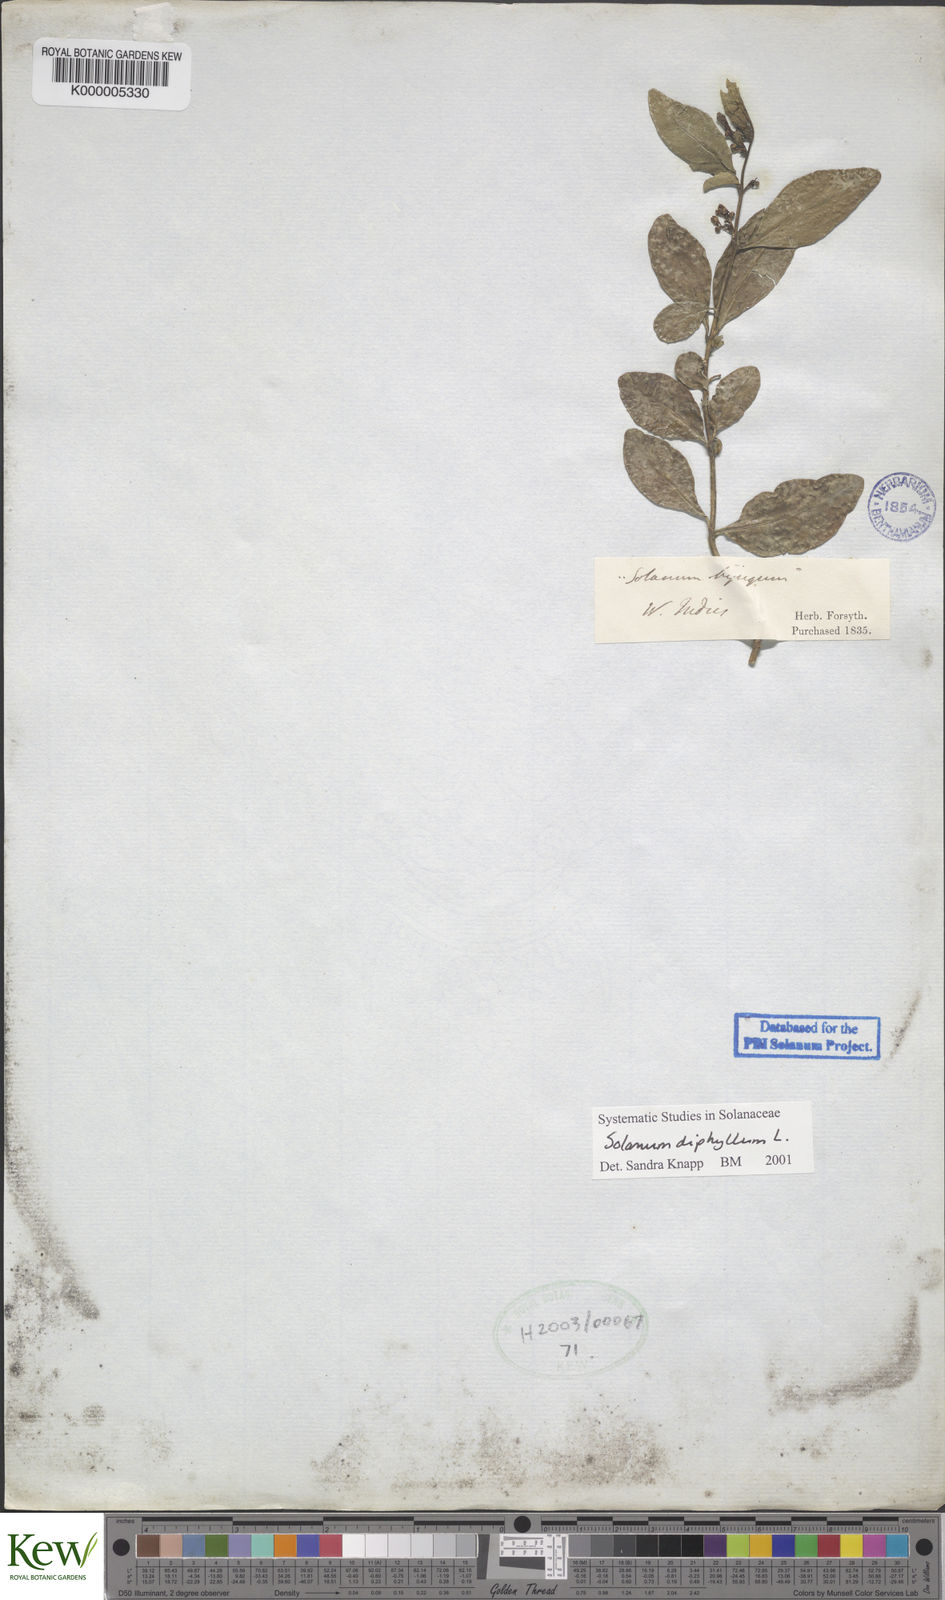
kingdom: Plantae
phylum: Tracheophyta
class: Magnoliopsida
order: Solanales
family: Solanaceae
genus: Solanum
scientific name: Solanum diphyllum
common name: Twoleaf nightshade
